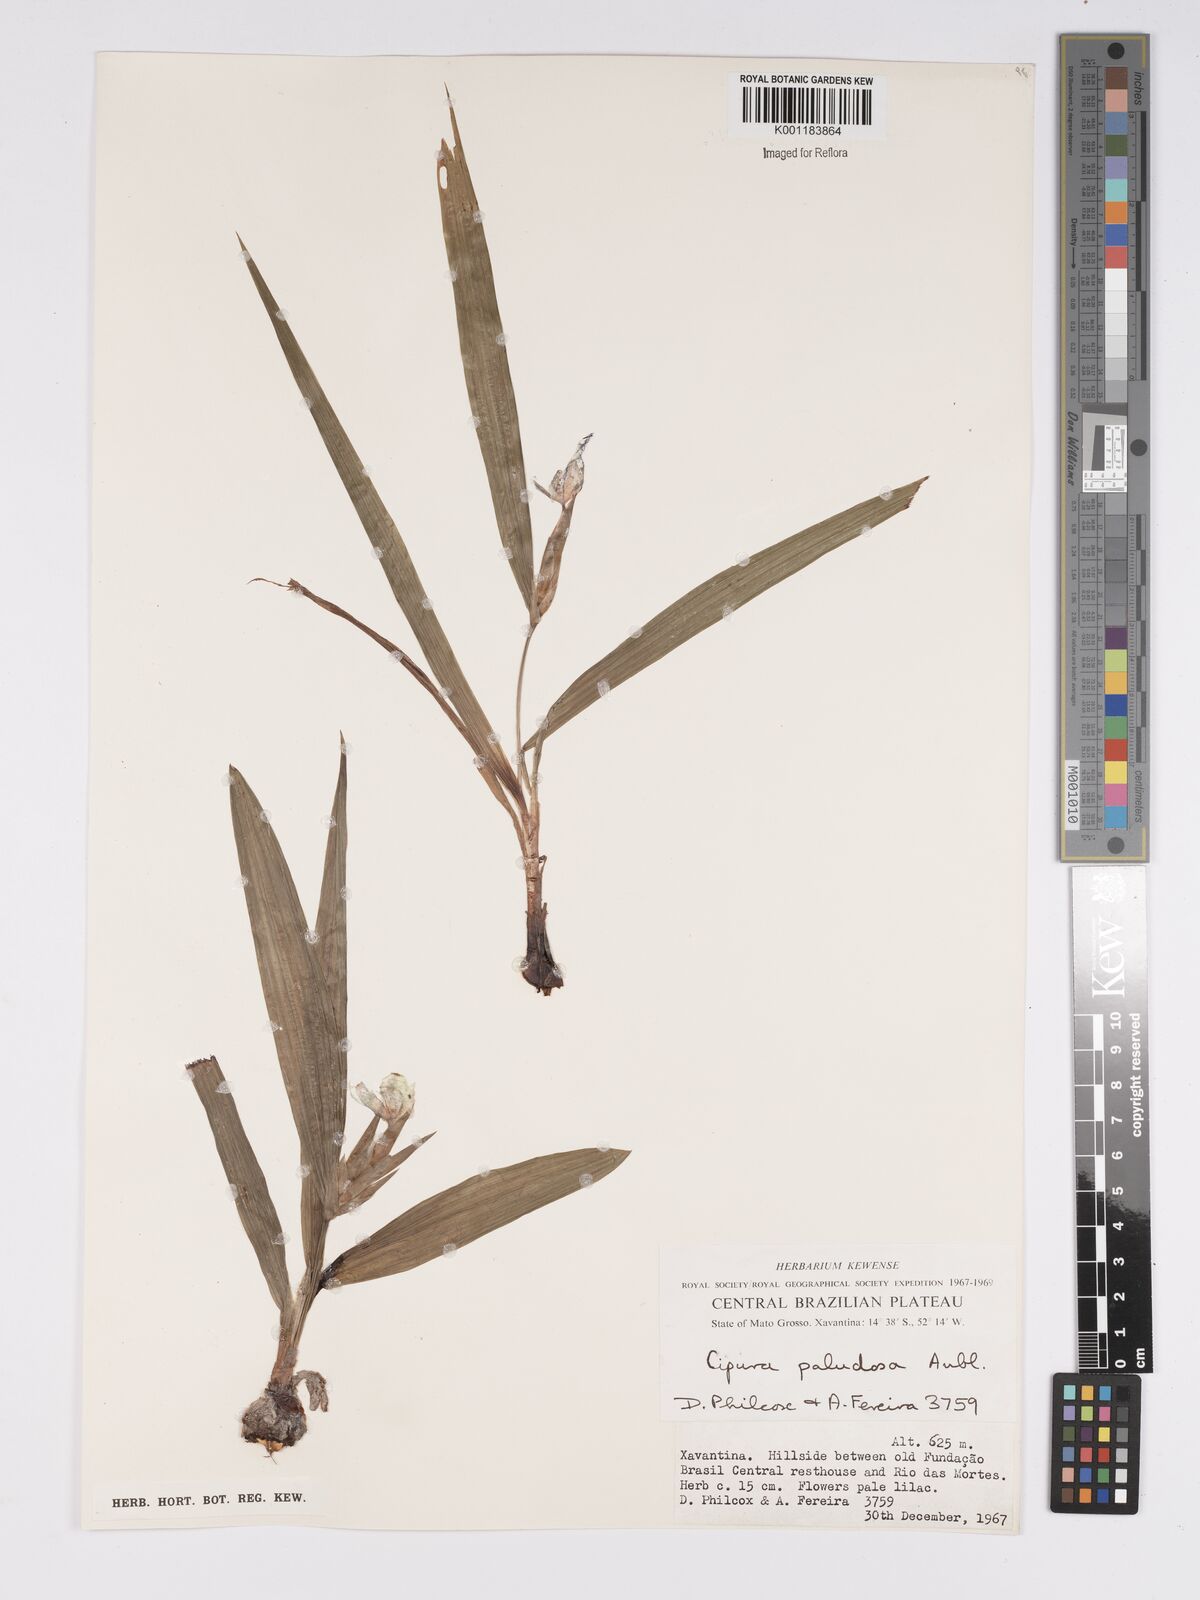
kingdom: Plantae
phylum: Tracheophyta
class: Liliopsida
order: Asparagales
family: Iridaceae
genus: Cipura
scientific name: Cipura paludosa
